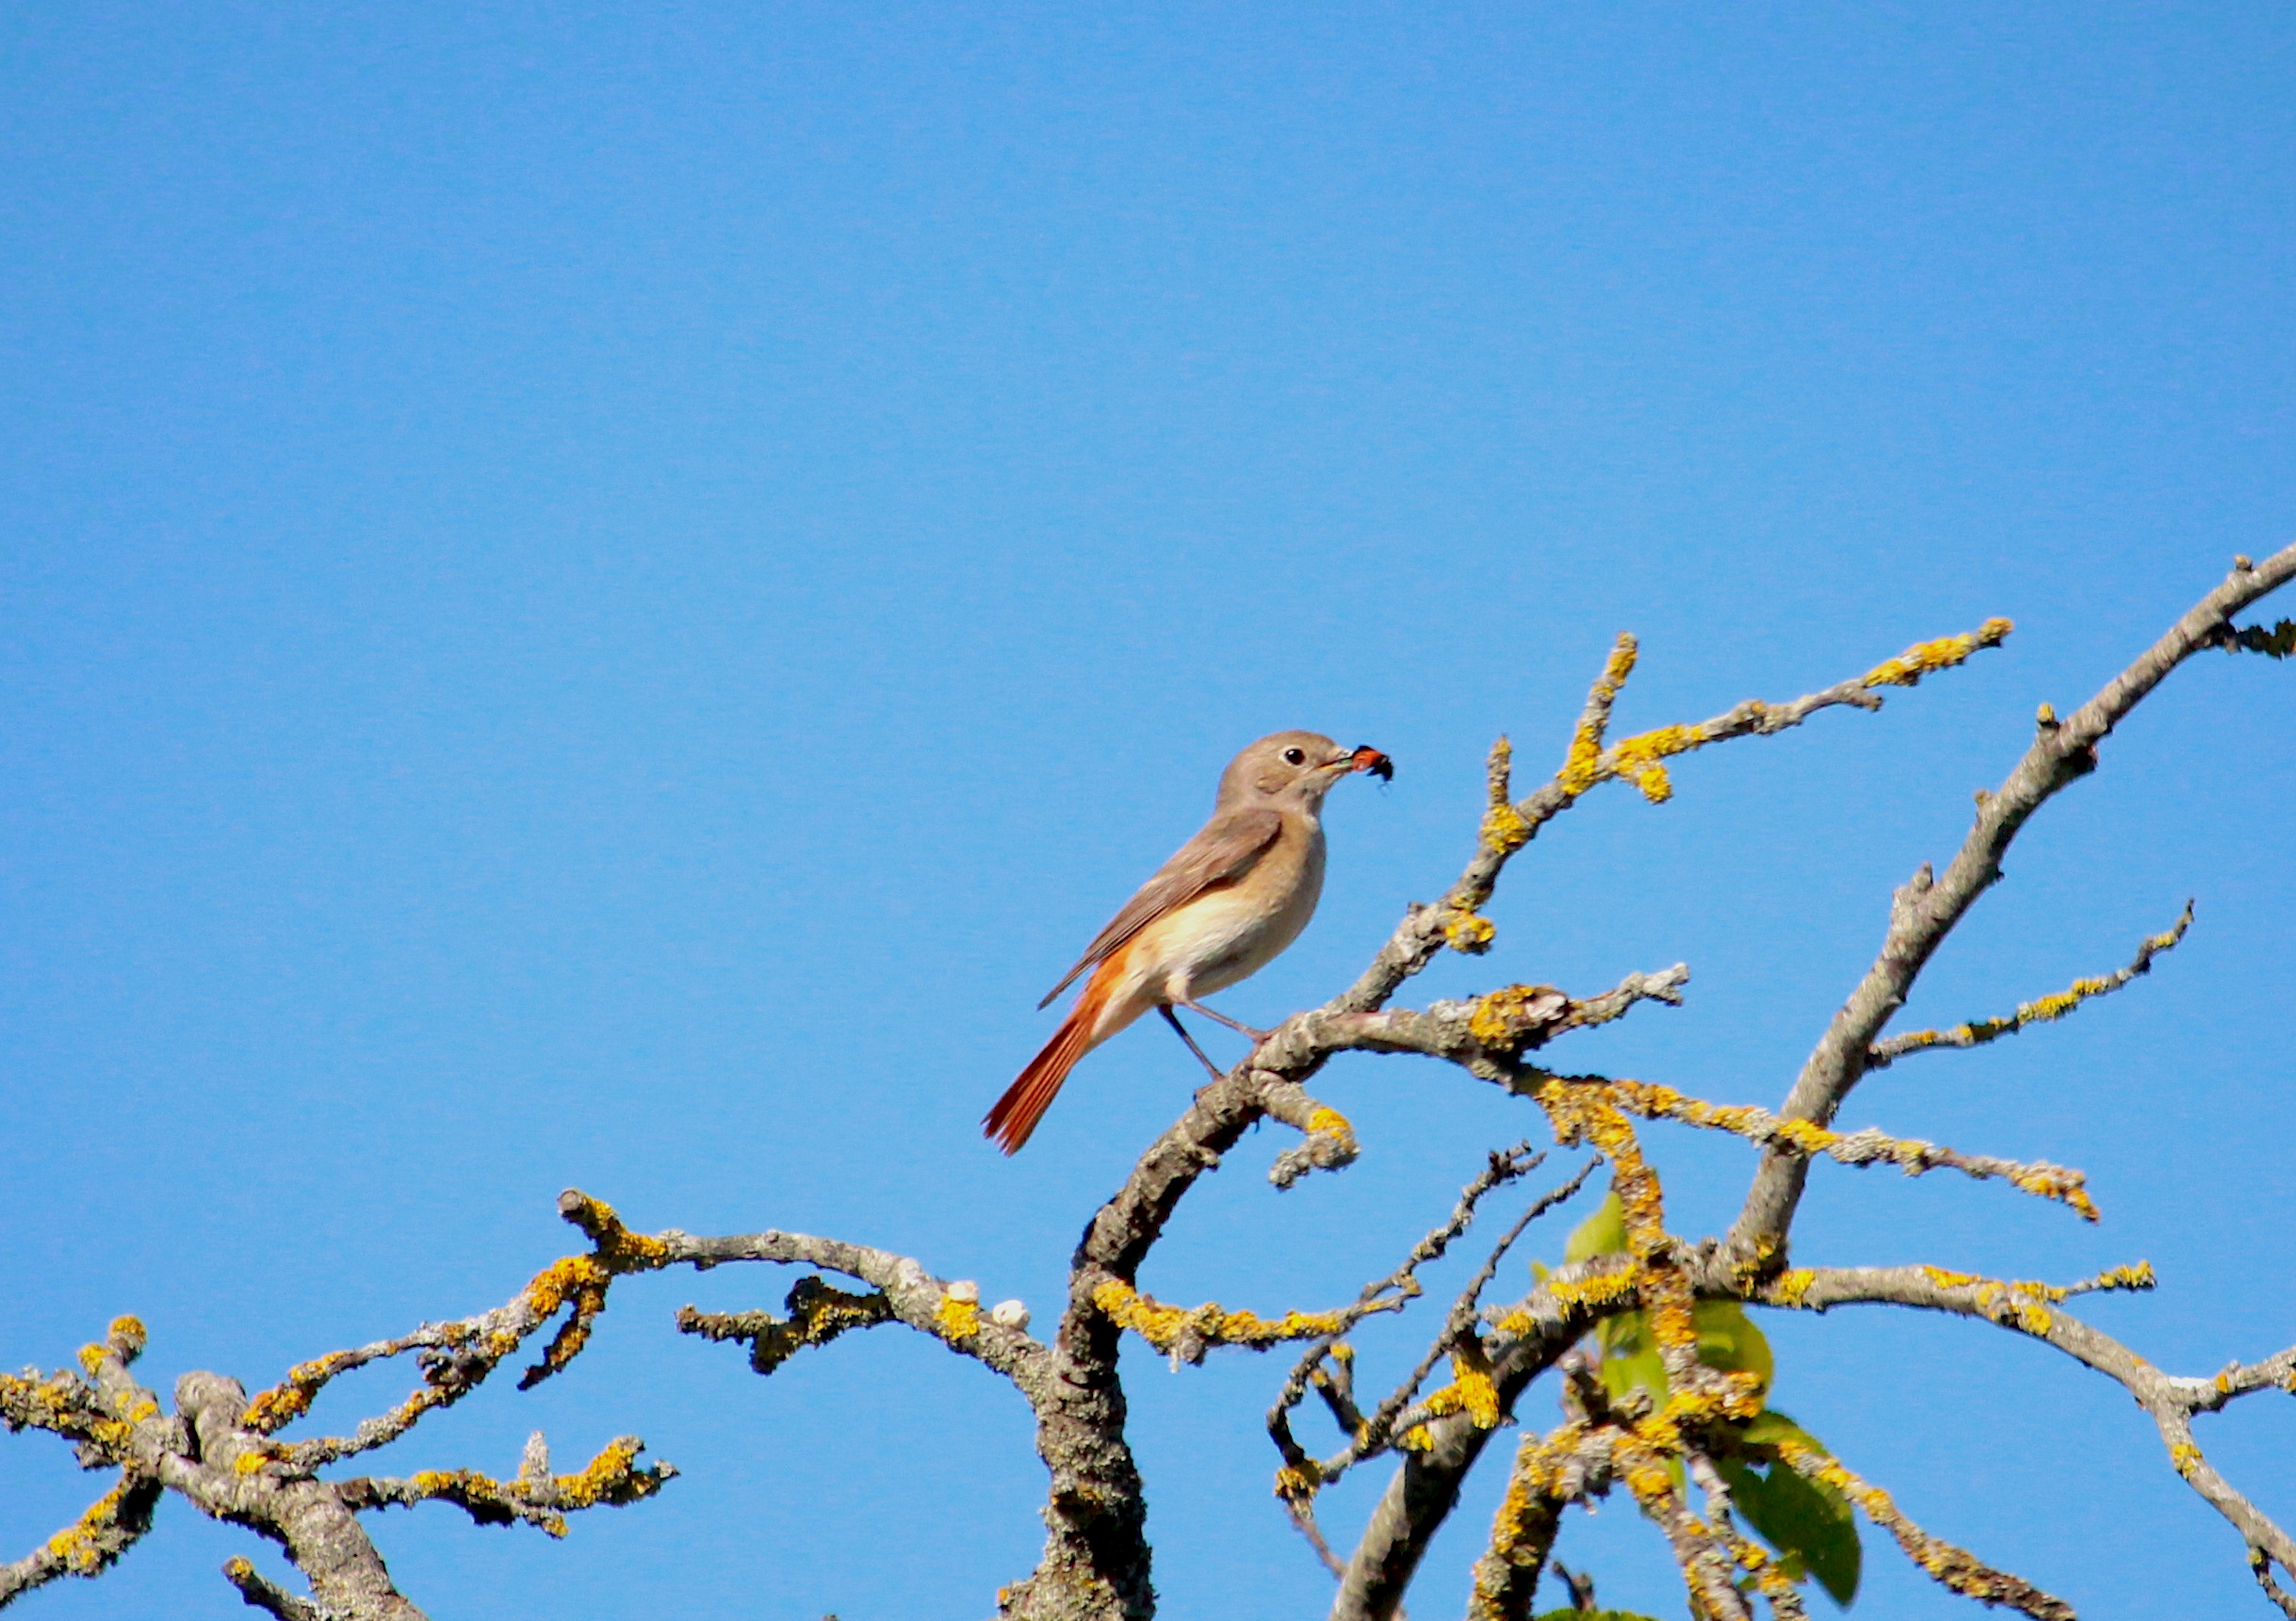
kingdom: Animalia
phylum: Chordata
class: Aves
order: Passeriformes
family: Muscicapidae
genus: Phoenicurus
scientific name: Phoenicurus phoenicurus
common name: Rødstjert
